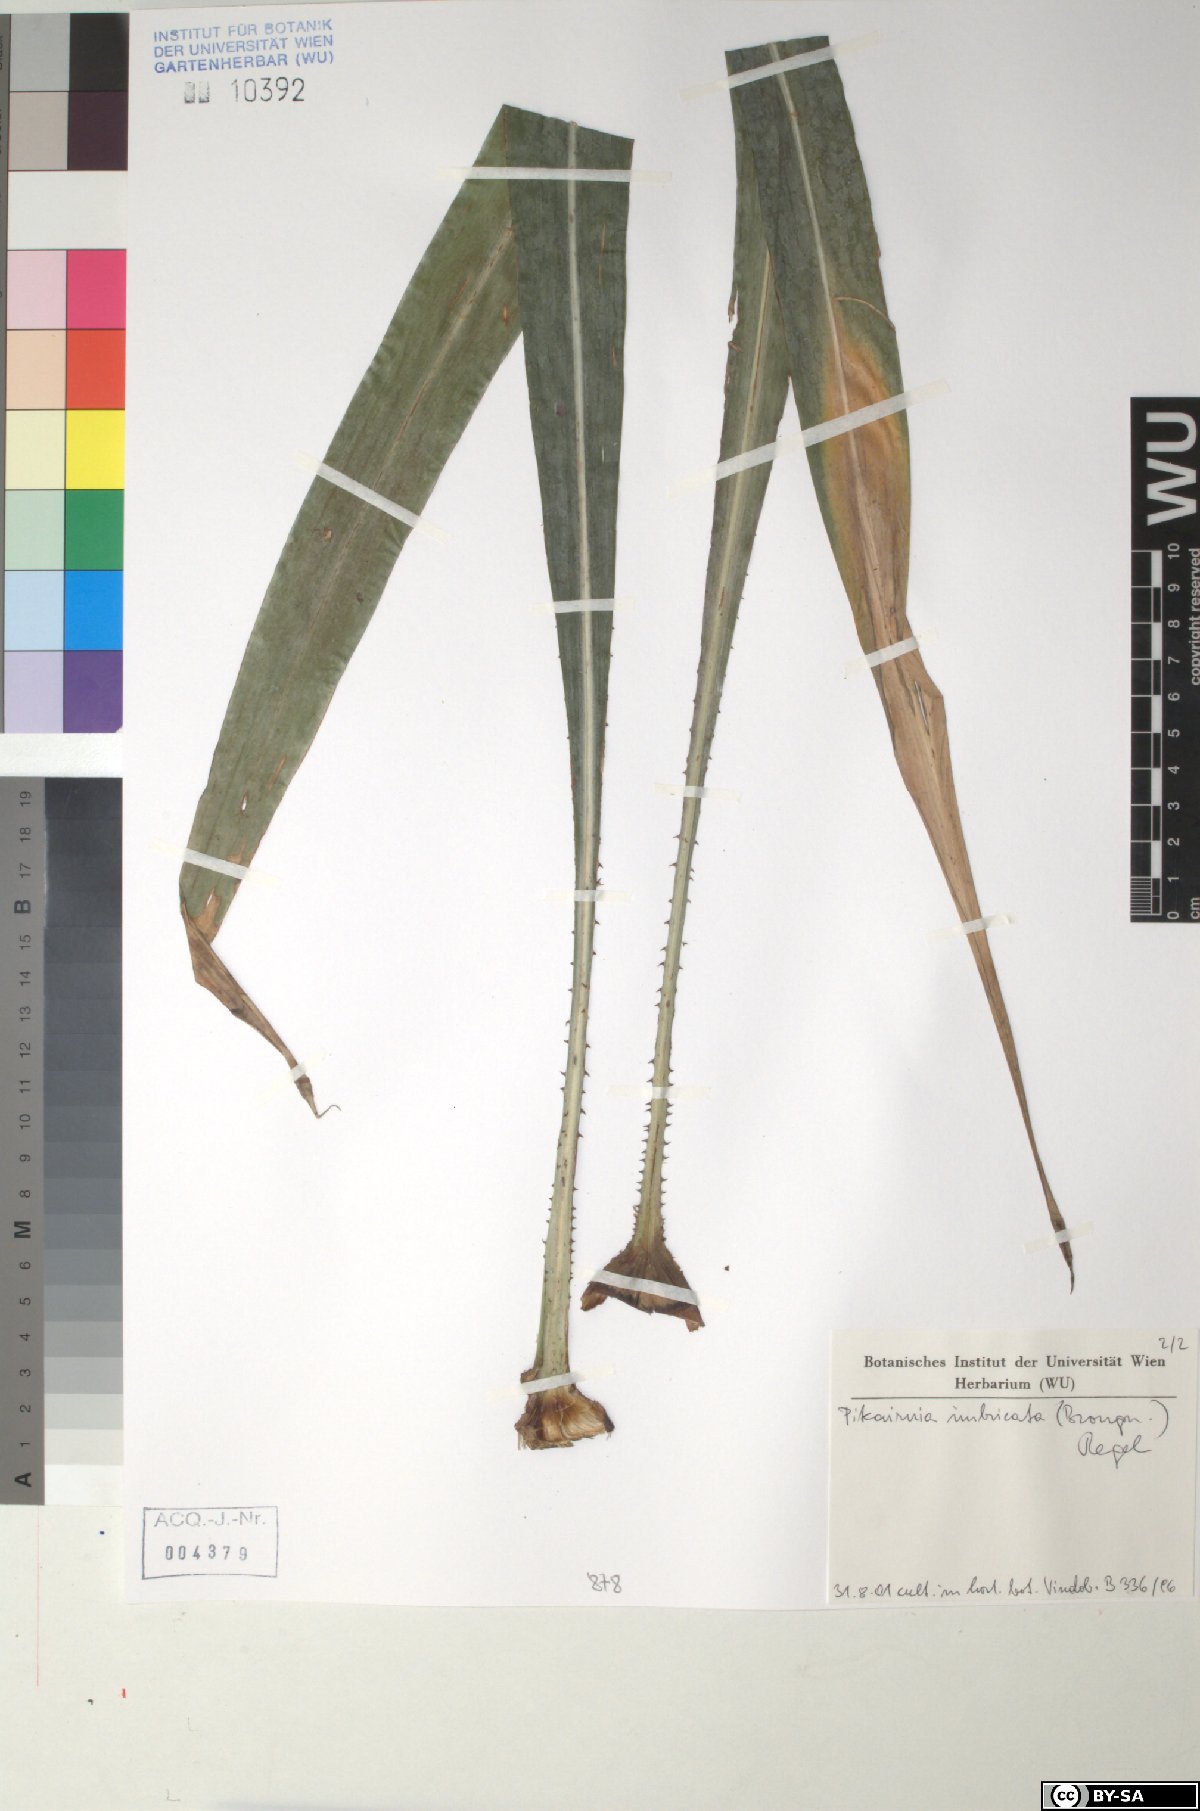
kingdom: Plantae
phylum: Tracheophyta
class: Liliopsida
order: Poales
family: Bromeliaceae
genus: Pitcairnia
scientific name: Pitcairnia imbricata
